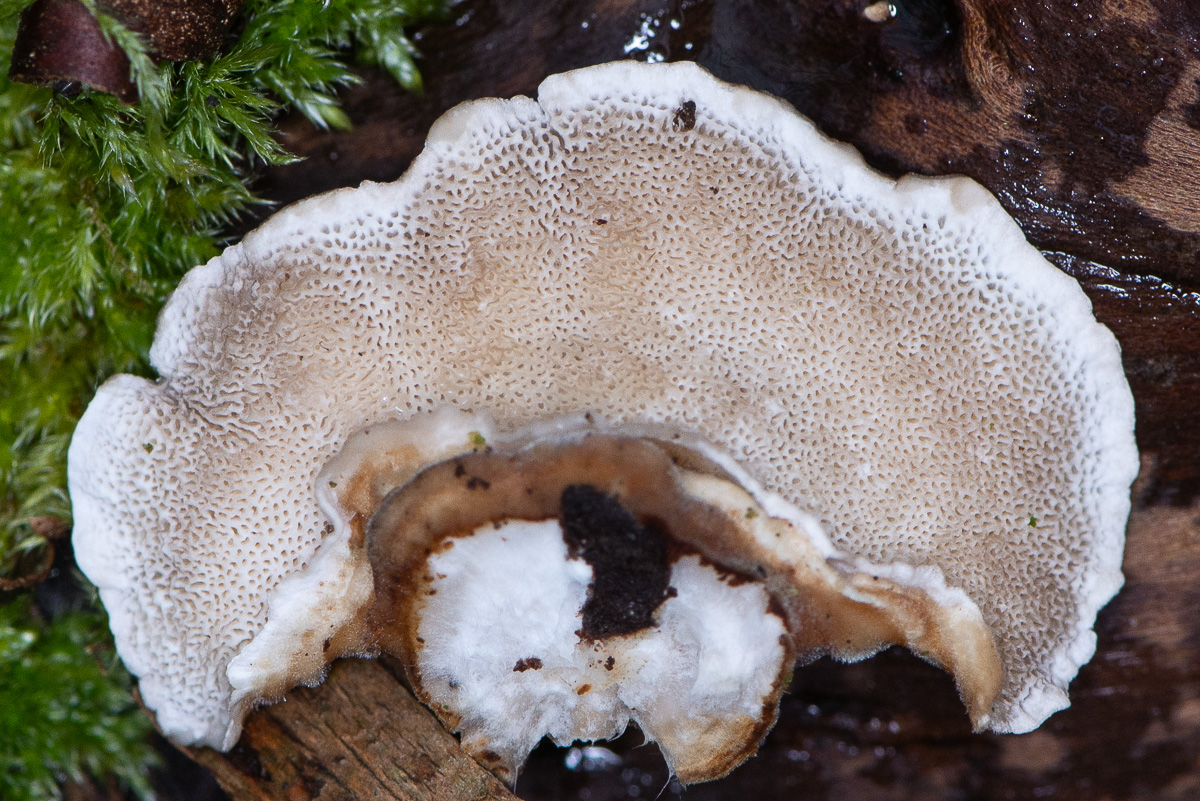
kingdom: Fungi
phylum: Basidiomycota
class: Agaricomycetes
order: Polyporales
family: Polyporaceae
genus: Trametes
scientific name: Trametes versicolor
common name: broget læderporesvamp
